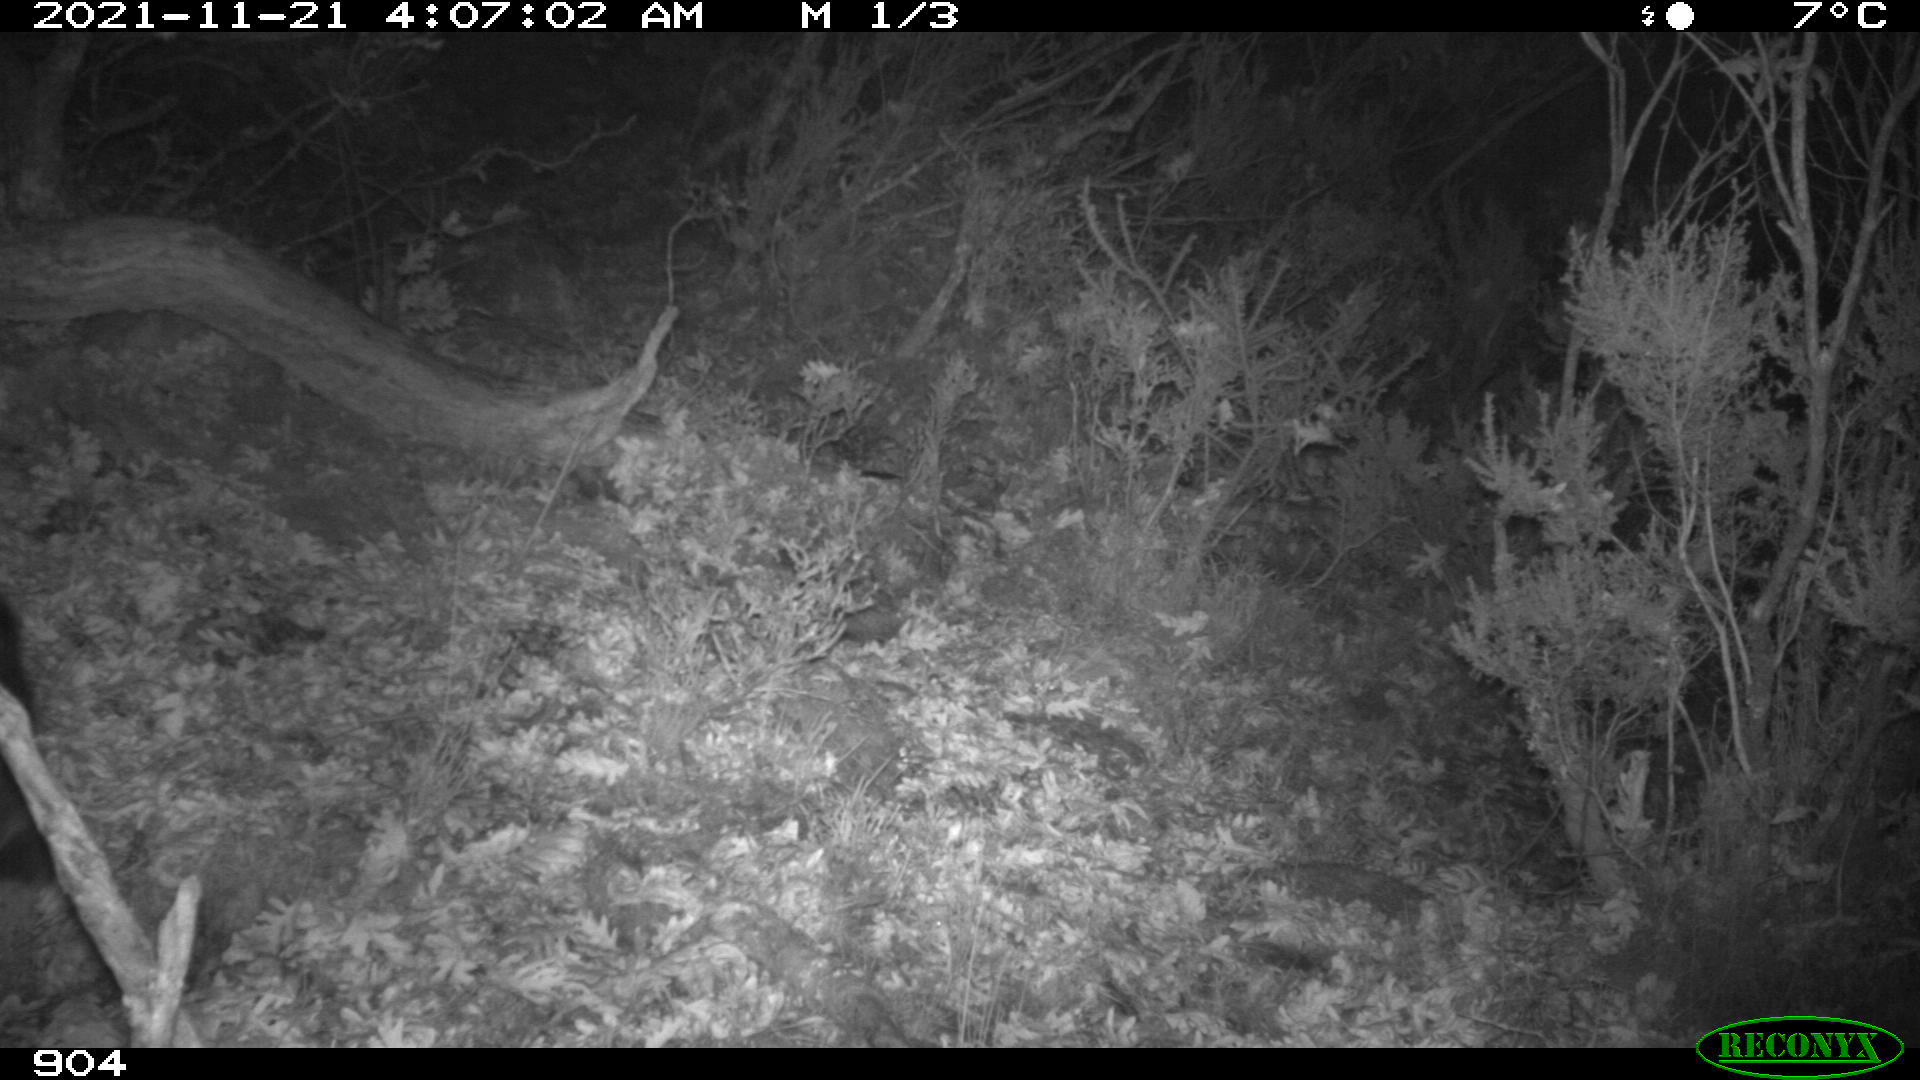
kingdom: Animalia
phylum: Chordata
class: Mammalia
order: Artiodactyla
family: Suidae
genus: Sus
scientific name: Sus scrofa
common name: Wild boar
